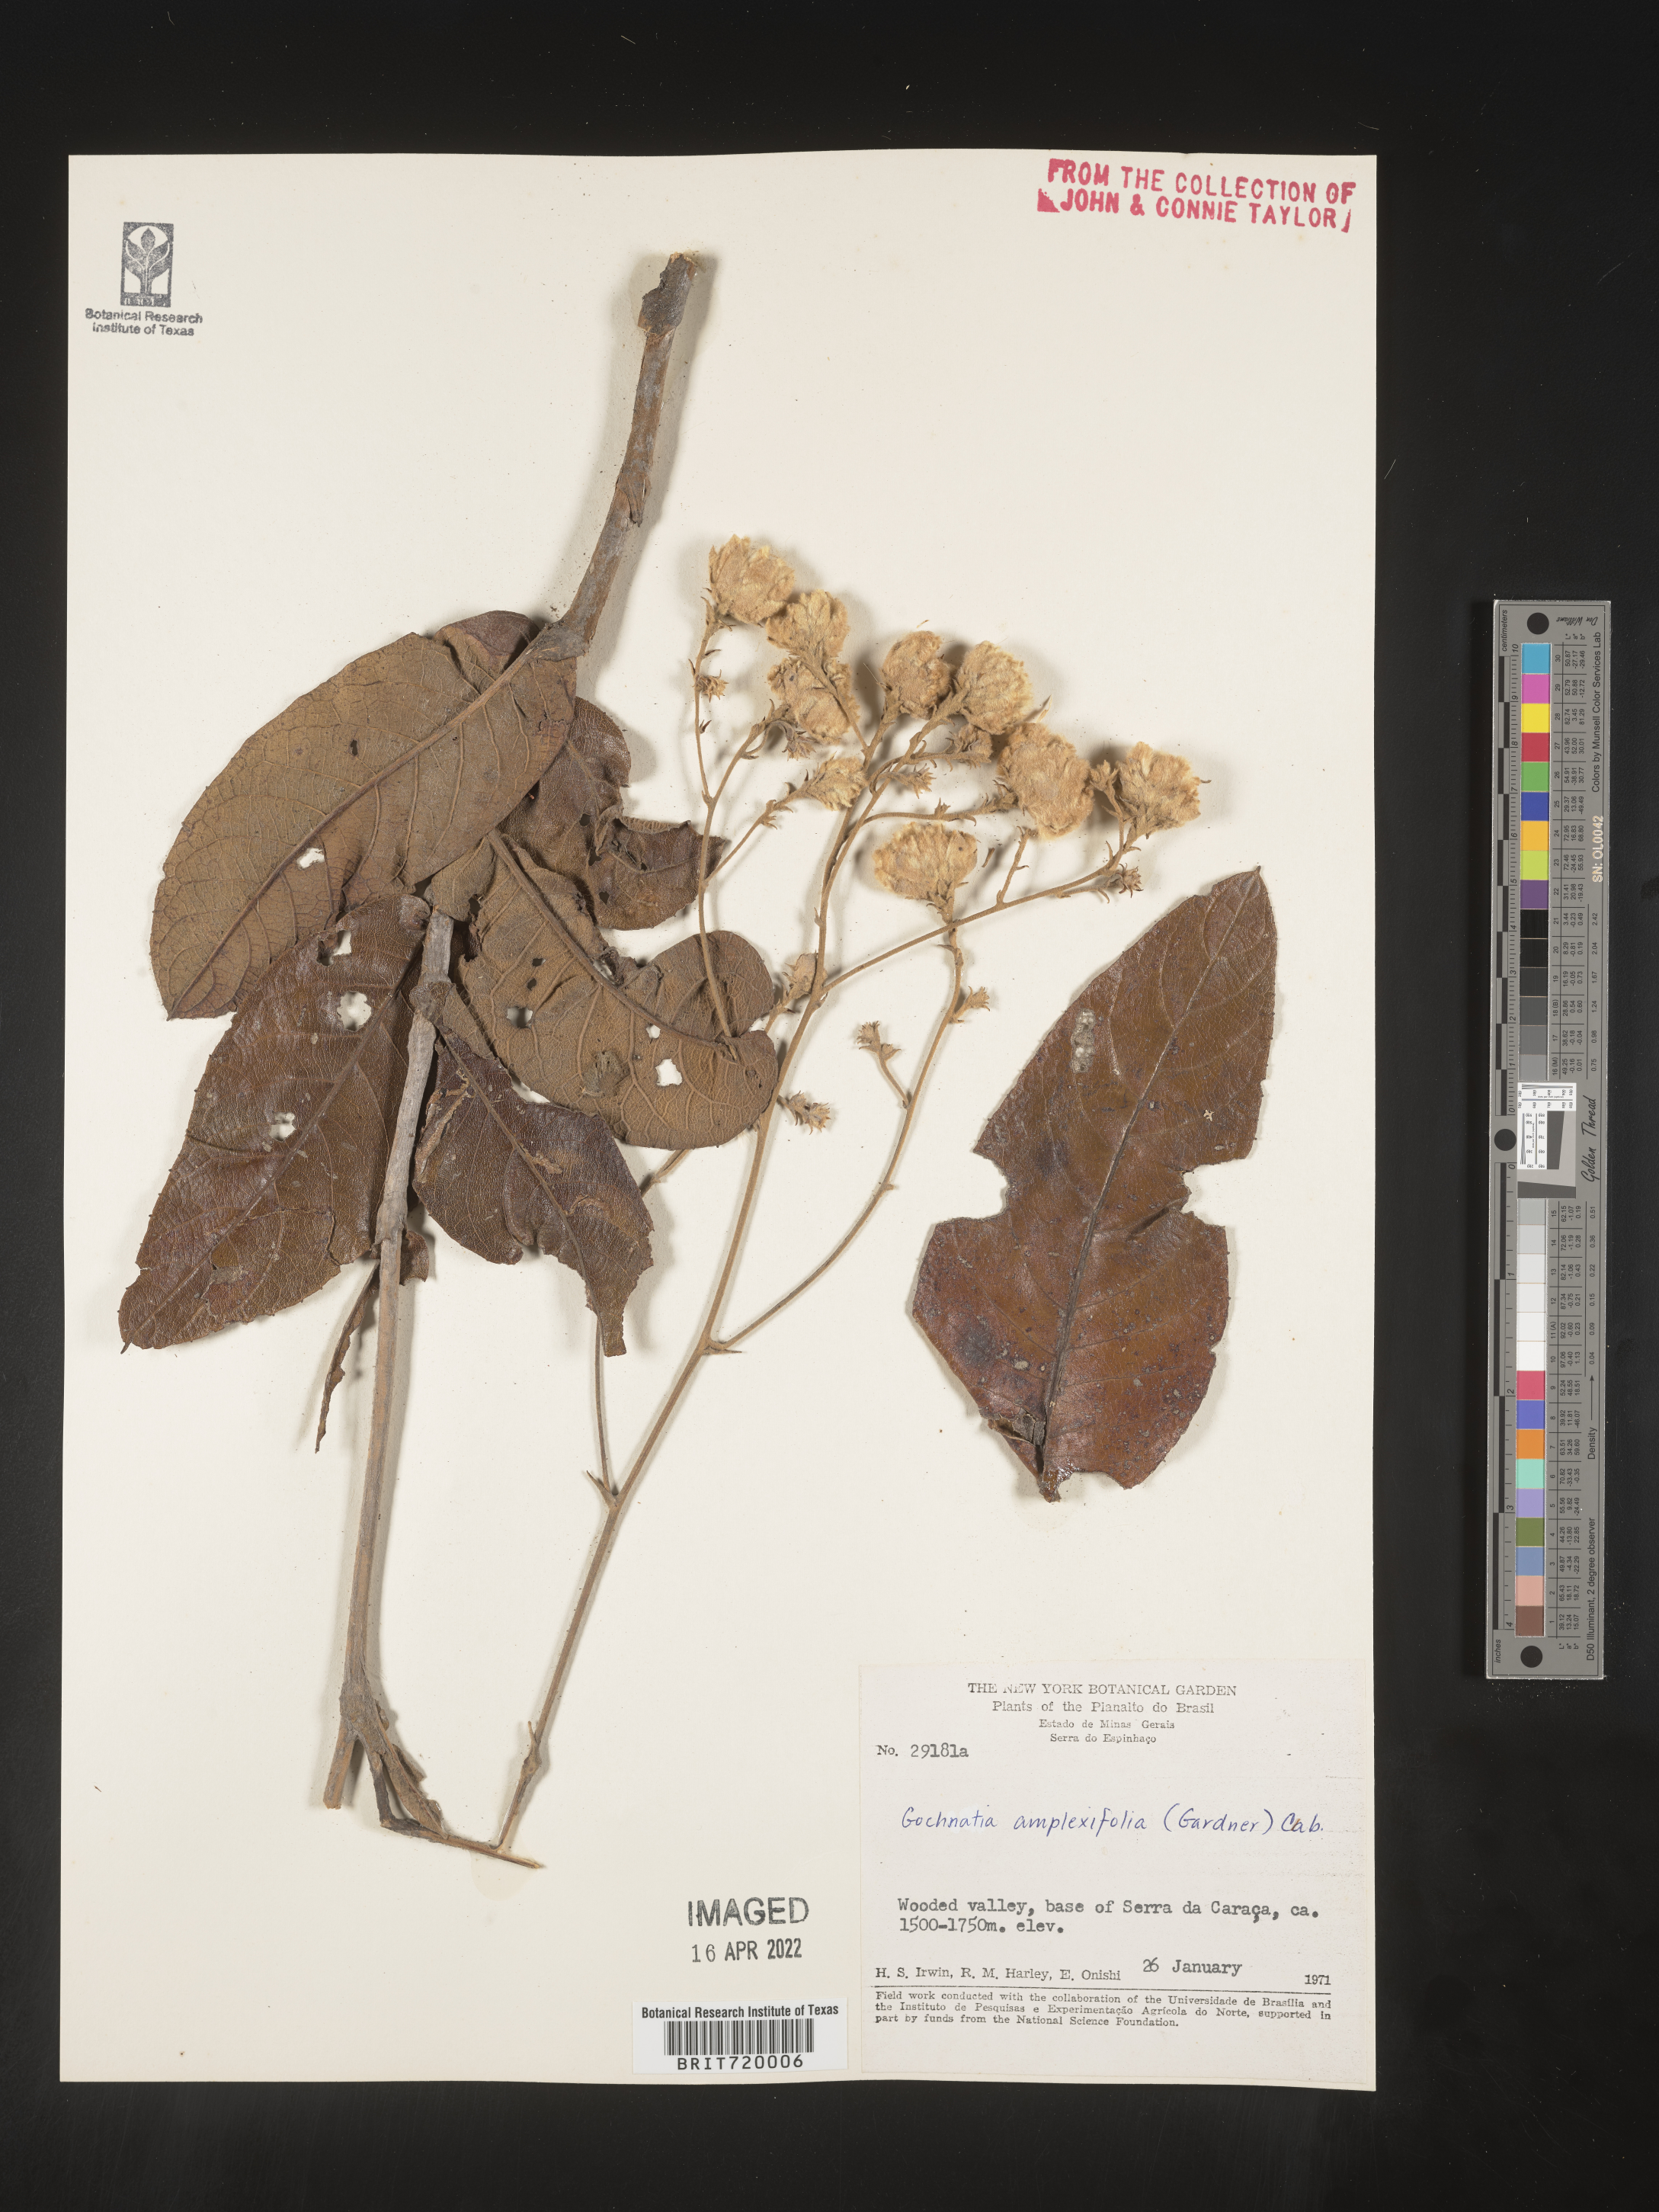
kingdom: Plantae
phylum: Tracheophyta
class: Magnoliopsida
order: Asterales
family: Asteraceae
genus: Gochnatia
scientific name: Gochnatia
